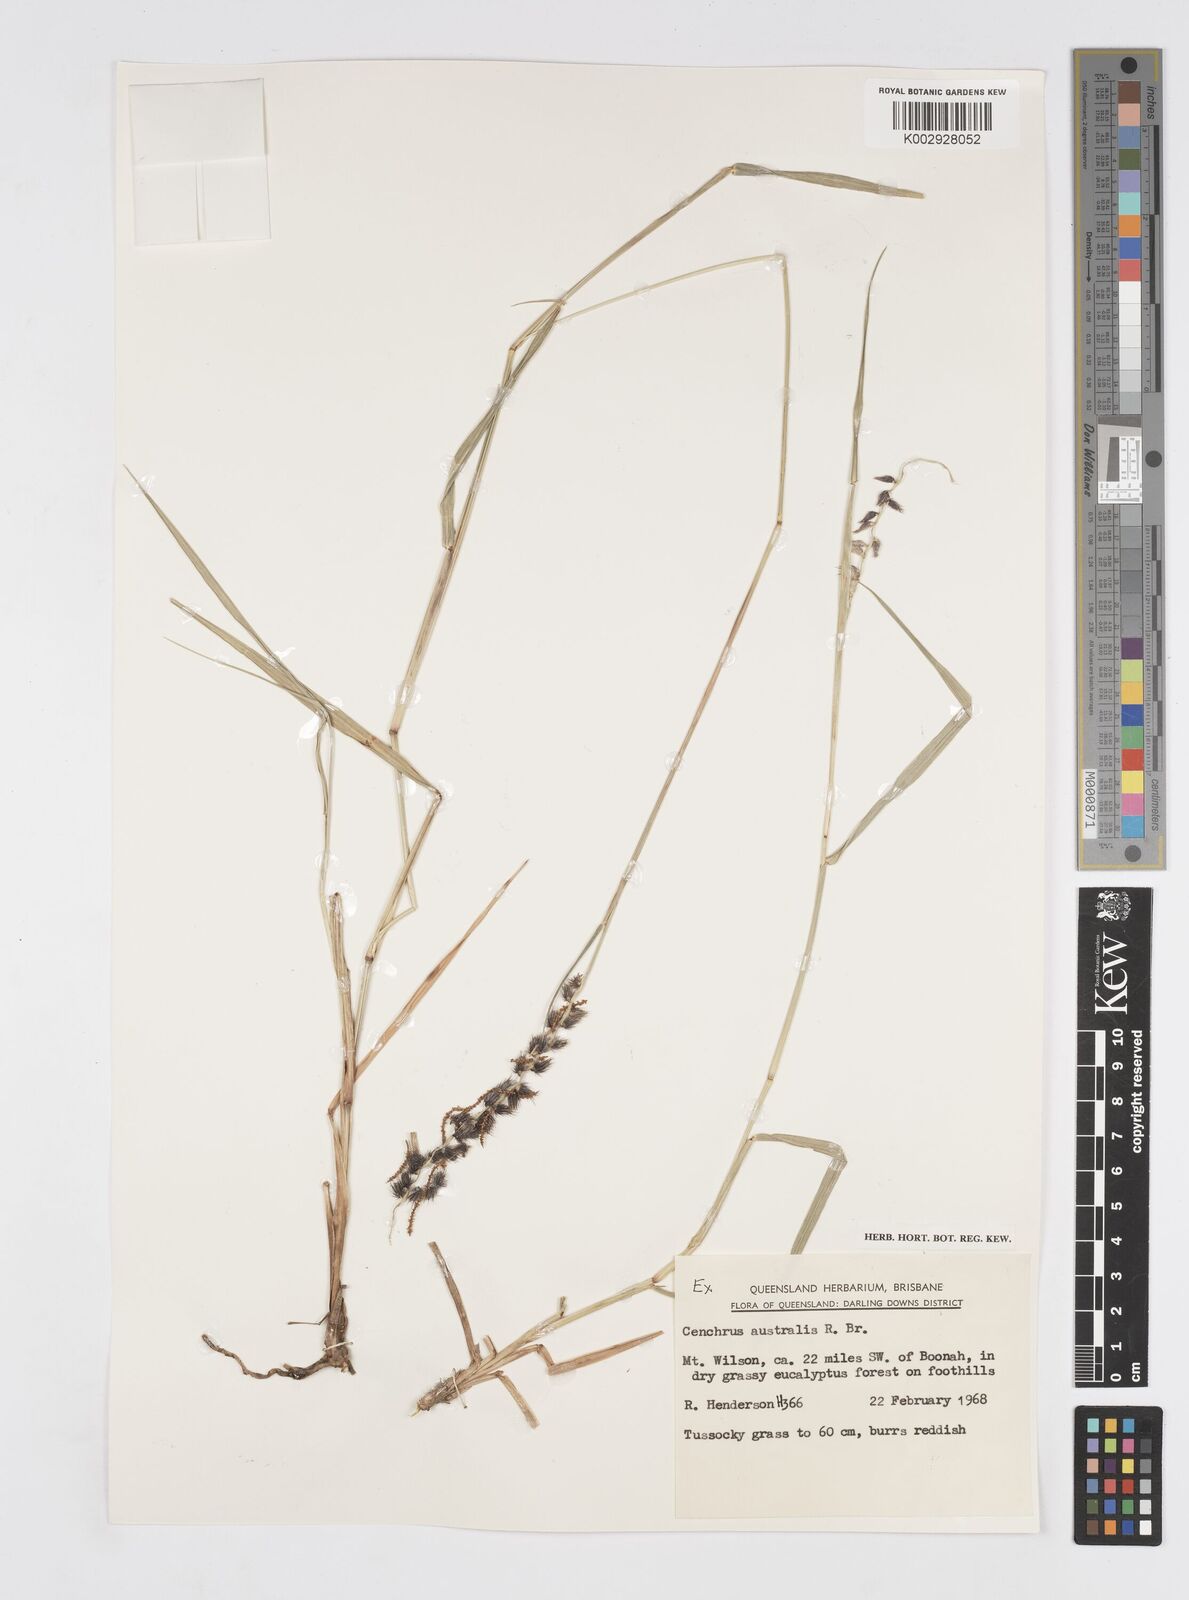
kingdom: Plantae
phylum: Tracheophyta
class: Liliopsida
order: Poales
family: Poaceae
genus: Cenchrus
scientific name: Cenchrus caliculatus
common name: Large bur grass
